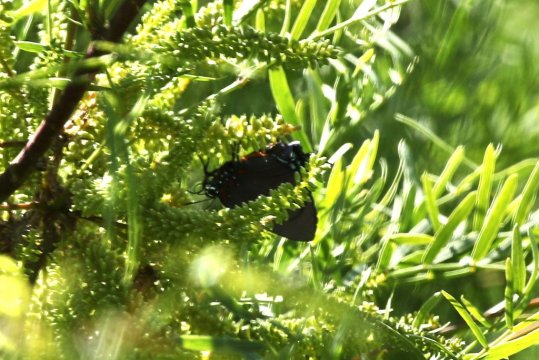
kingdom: Animalia
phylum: Arthropoda
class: Insecta
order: Lepidoptera
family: Lycaenidae
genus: Atlides
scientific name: Atlides halesus
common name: Great Purple Hairstreak
